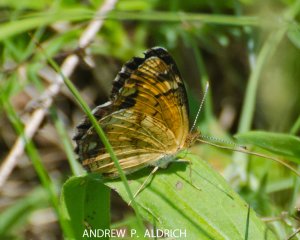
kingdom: Animalia
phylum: Arthropoda
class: Insecta
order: Lepidoptera
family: Nymphalidae
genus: Phyciodes
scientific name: Phyciodes tharos
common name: Northern Crescent
